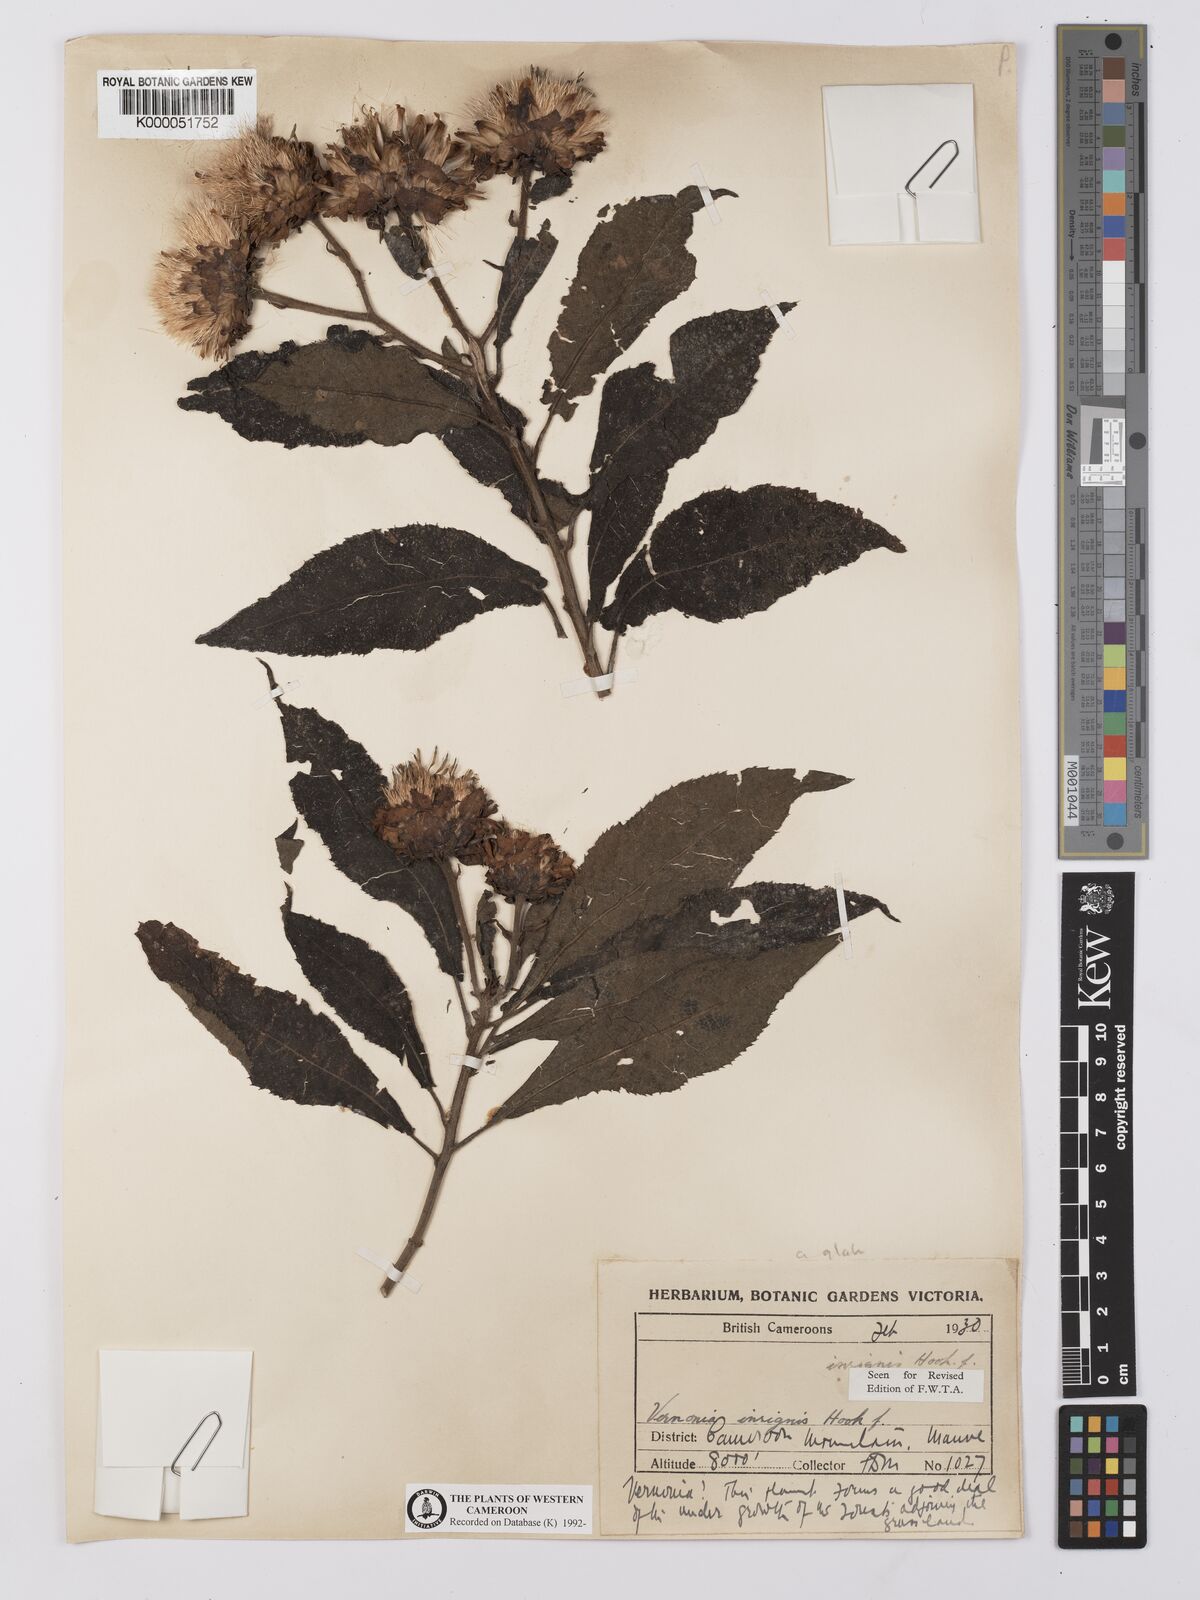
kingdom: Plantae
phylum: Tracheophyta
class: Magnoliopsida
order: Asterales
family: Asteraceae
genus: Baccharoides
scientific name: Baccharoides hymenolepis
